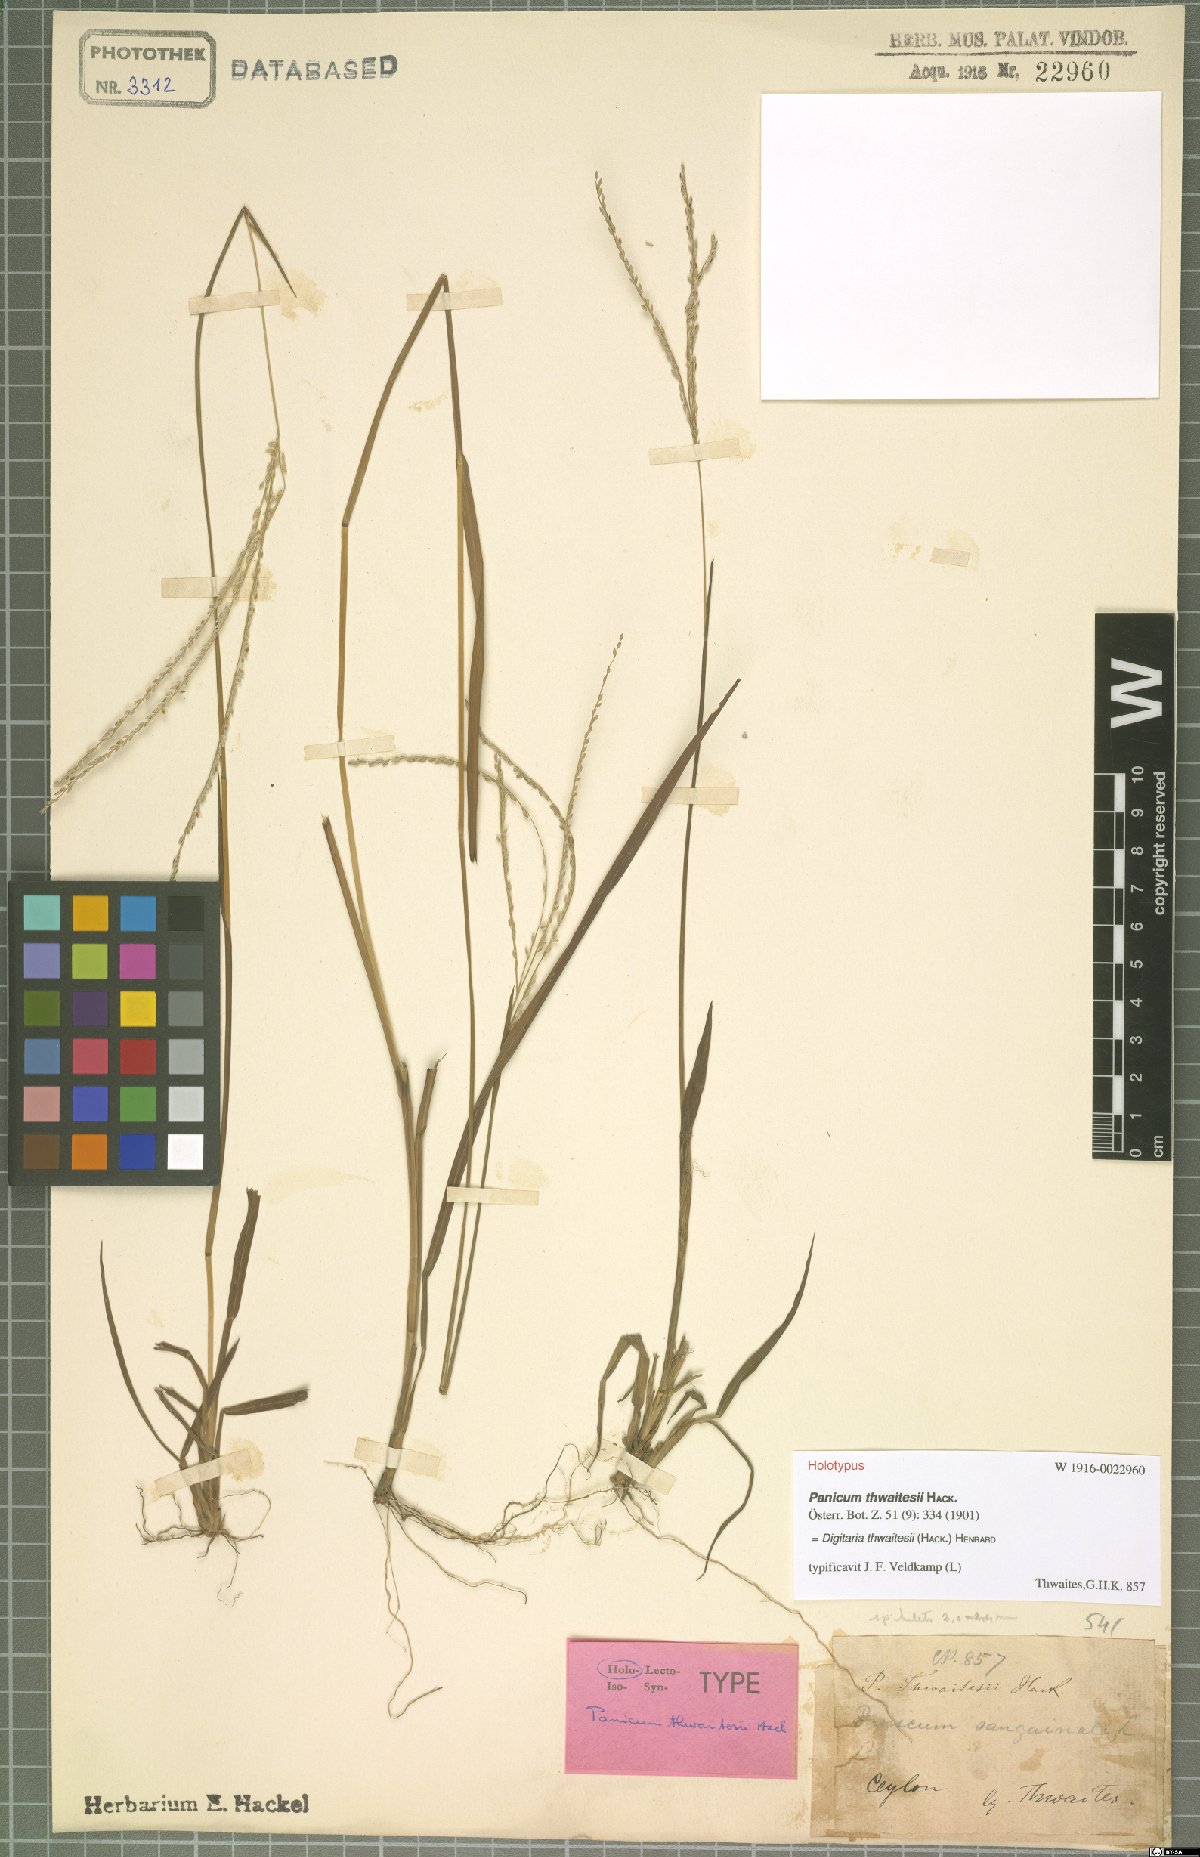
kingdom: Plantae
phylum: Tracheophyta
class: Liliopsida
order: Poales
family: Poaceae
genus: Digitaria
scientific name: Digitaria thwaitesii
